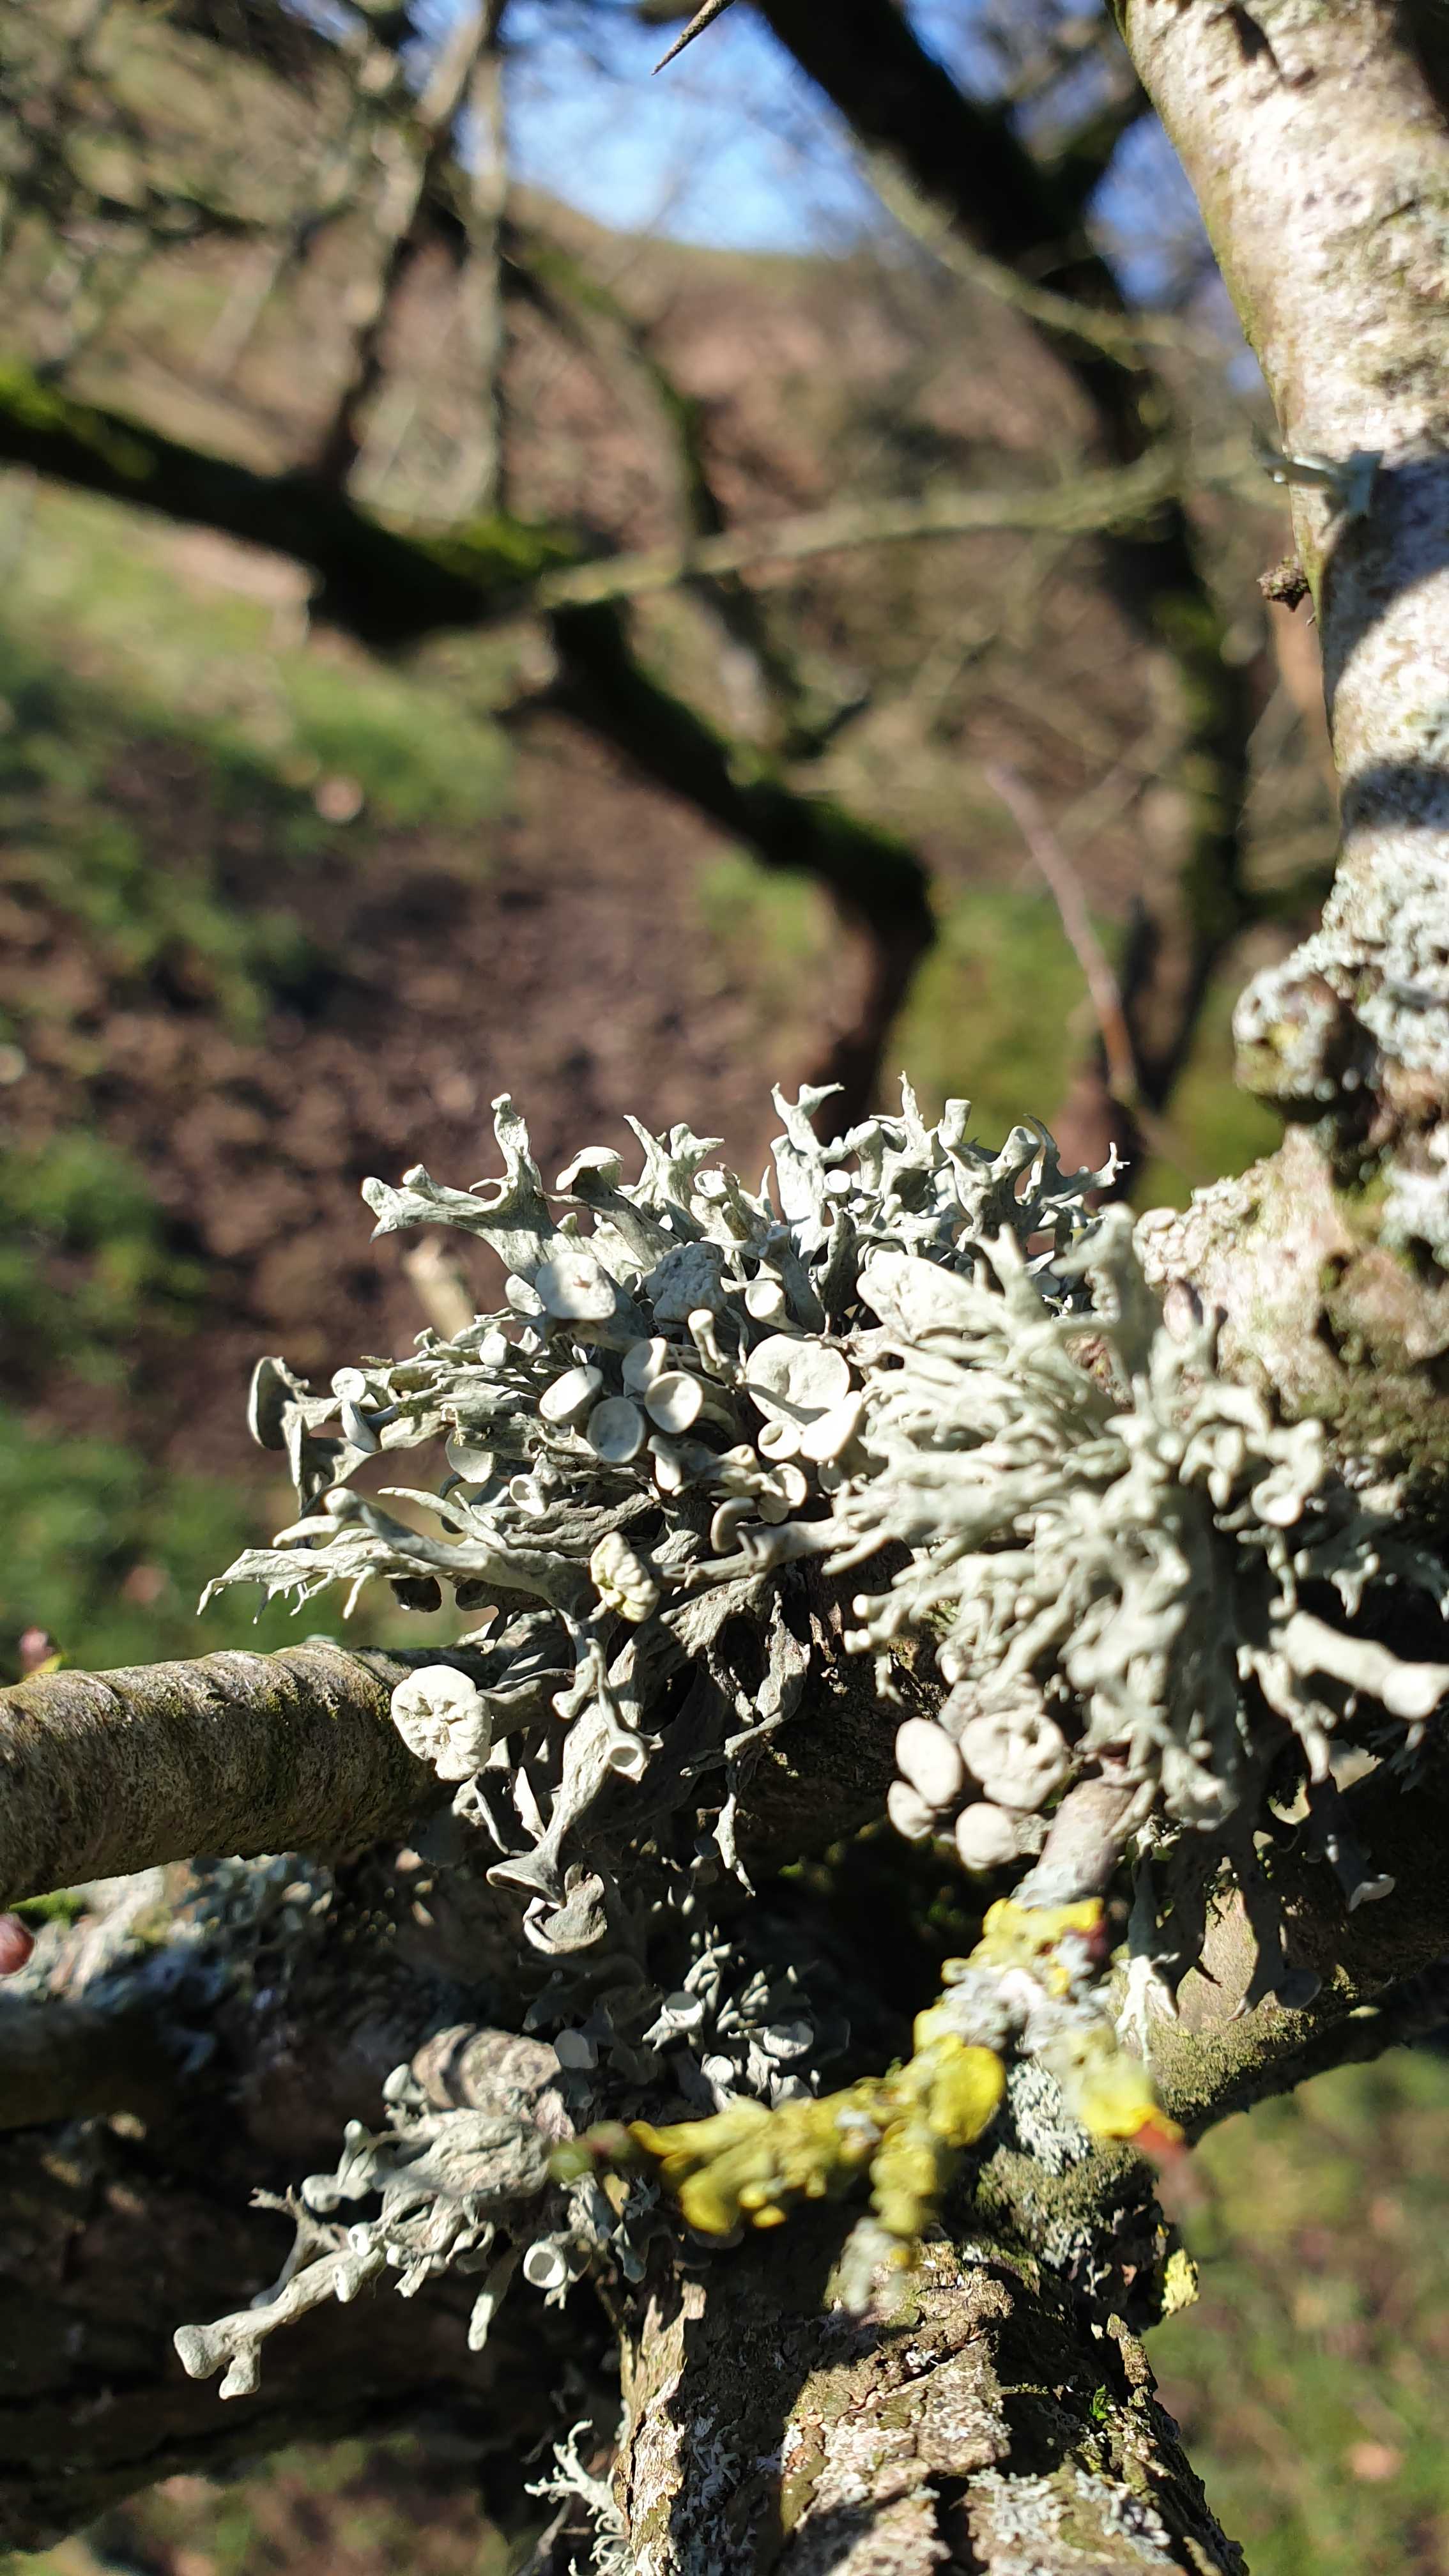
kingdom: Fungi
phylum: Ascomycota
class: Lecanoromycetes
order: Lecanorales
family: Ramalinaceae
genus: Ramalina
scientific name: Ramalina fastigiata
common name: tue-grenlav
